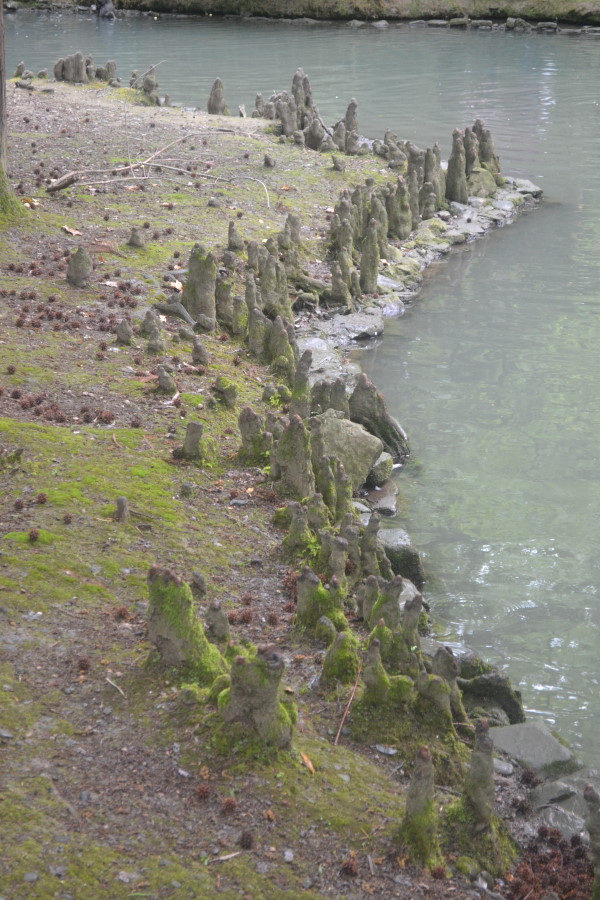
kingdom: Plantae
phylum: Tracheophyta
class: Pinopsida
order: Pinales
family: Cupressaceae
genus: Taxodium
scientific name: Taxodium distichum
